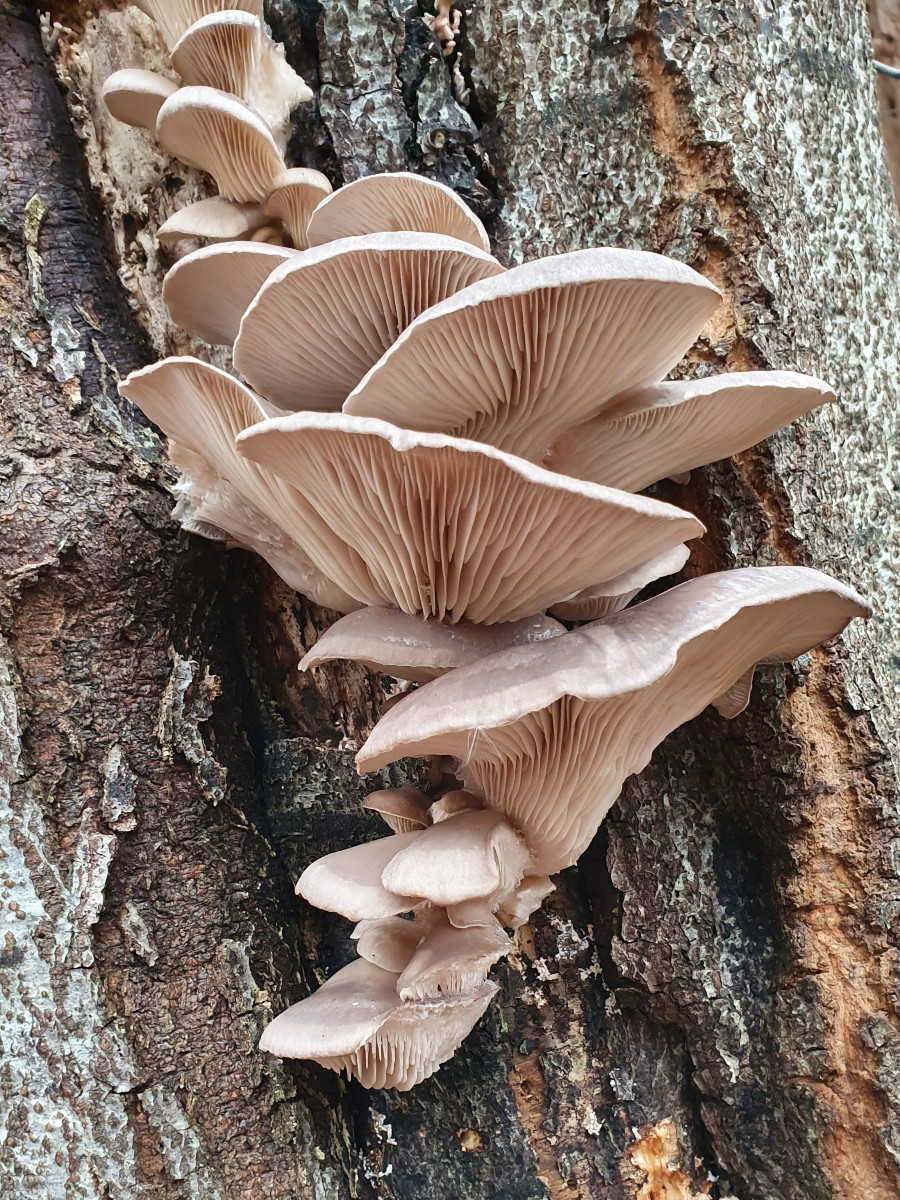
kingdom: Fungi
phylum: Basidiomycota
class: Agaricomycetes
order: Agaricales
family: Pleurotaceae
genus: Pleurotus
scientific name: Pleurotus ostreatus
